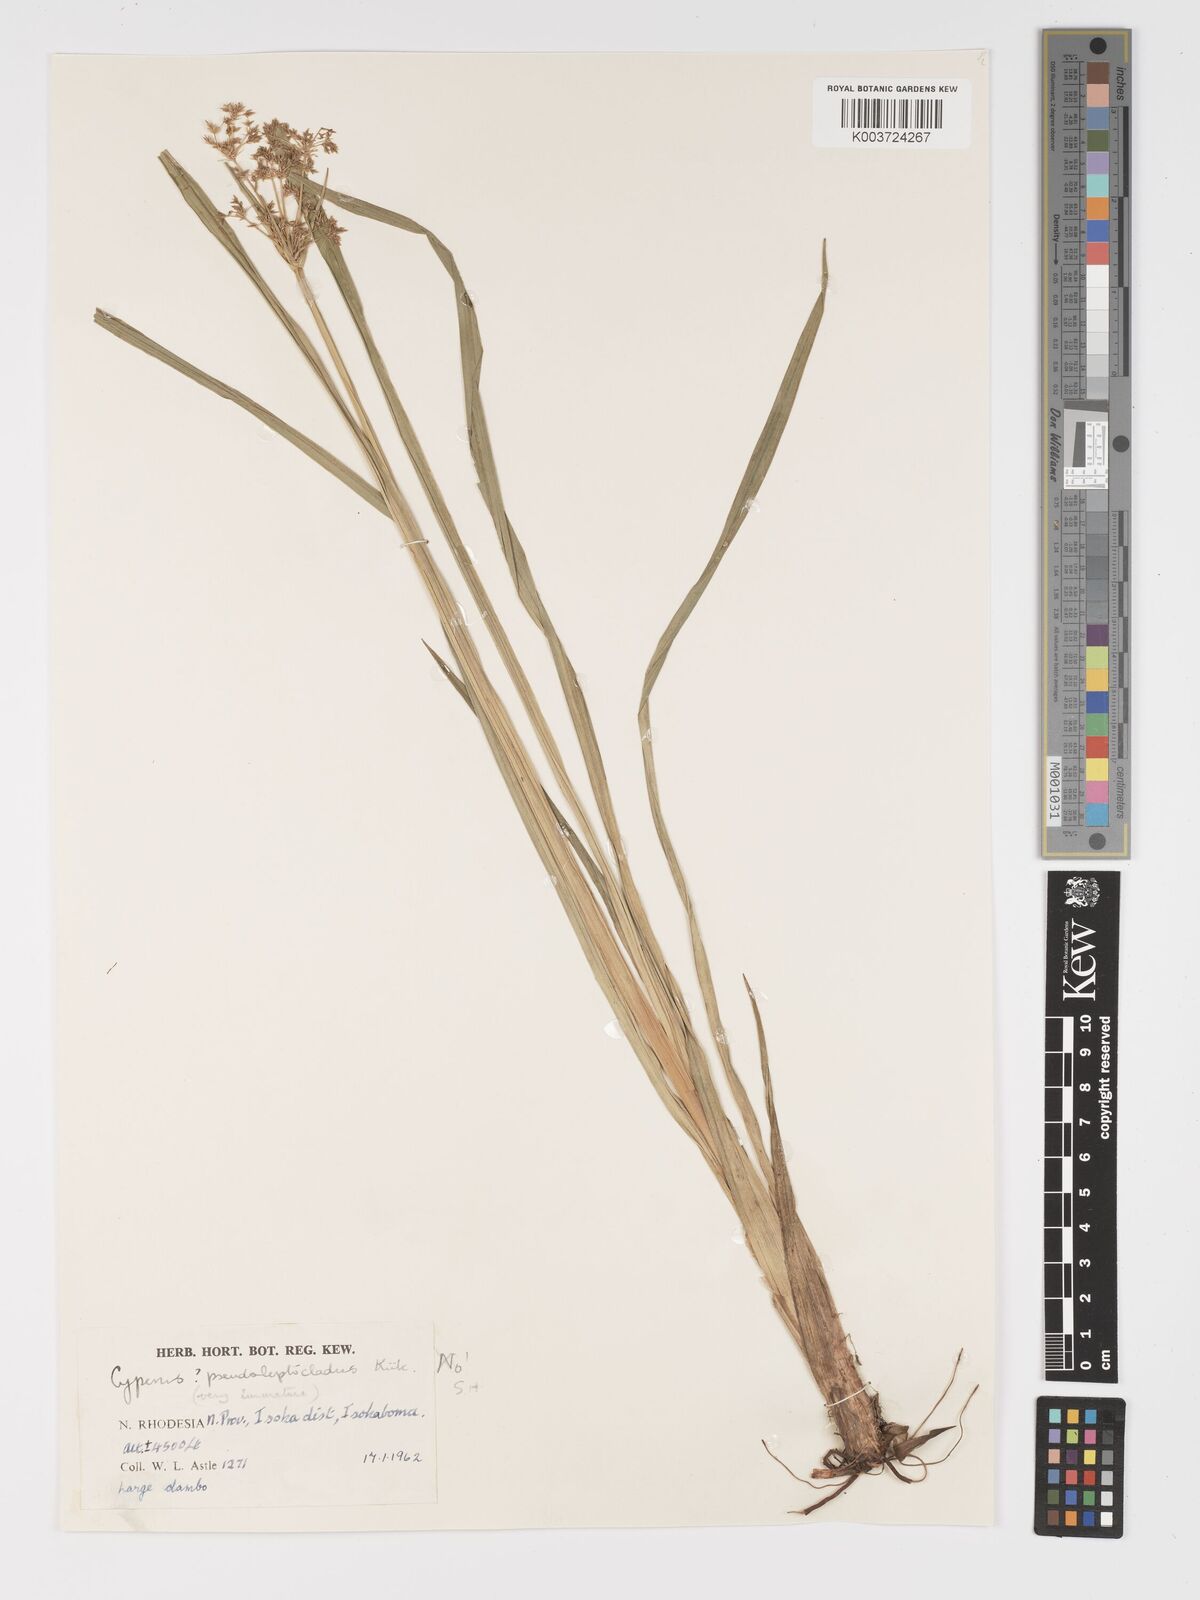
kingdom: Plantae
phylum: Tracheophyta
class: Liliopsida
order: Poales
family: Cyperaceae
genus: Cyperus
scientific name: Cyperus
